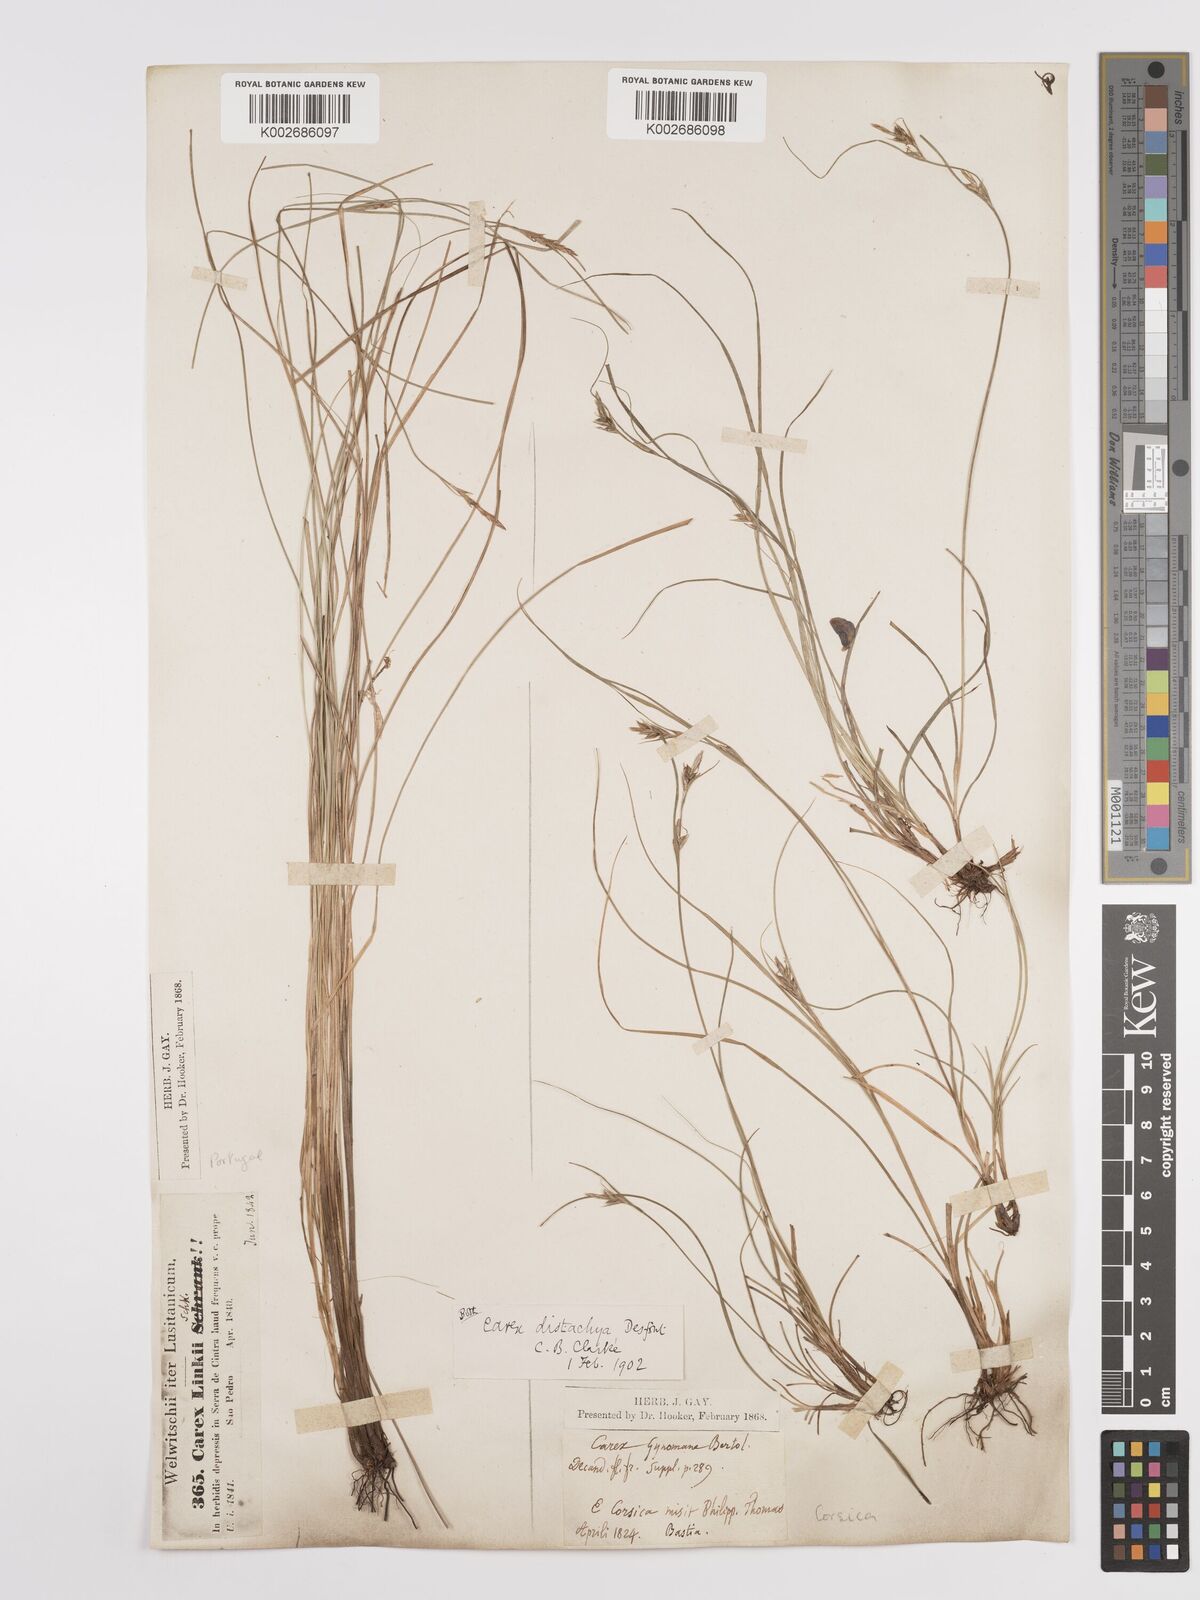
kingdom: Plantae
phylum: Tracheophyta
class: Liliopsida
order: Poales
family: Cyperaceae
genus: Carex
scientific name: Carex distachya
